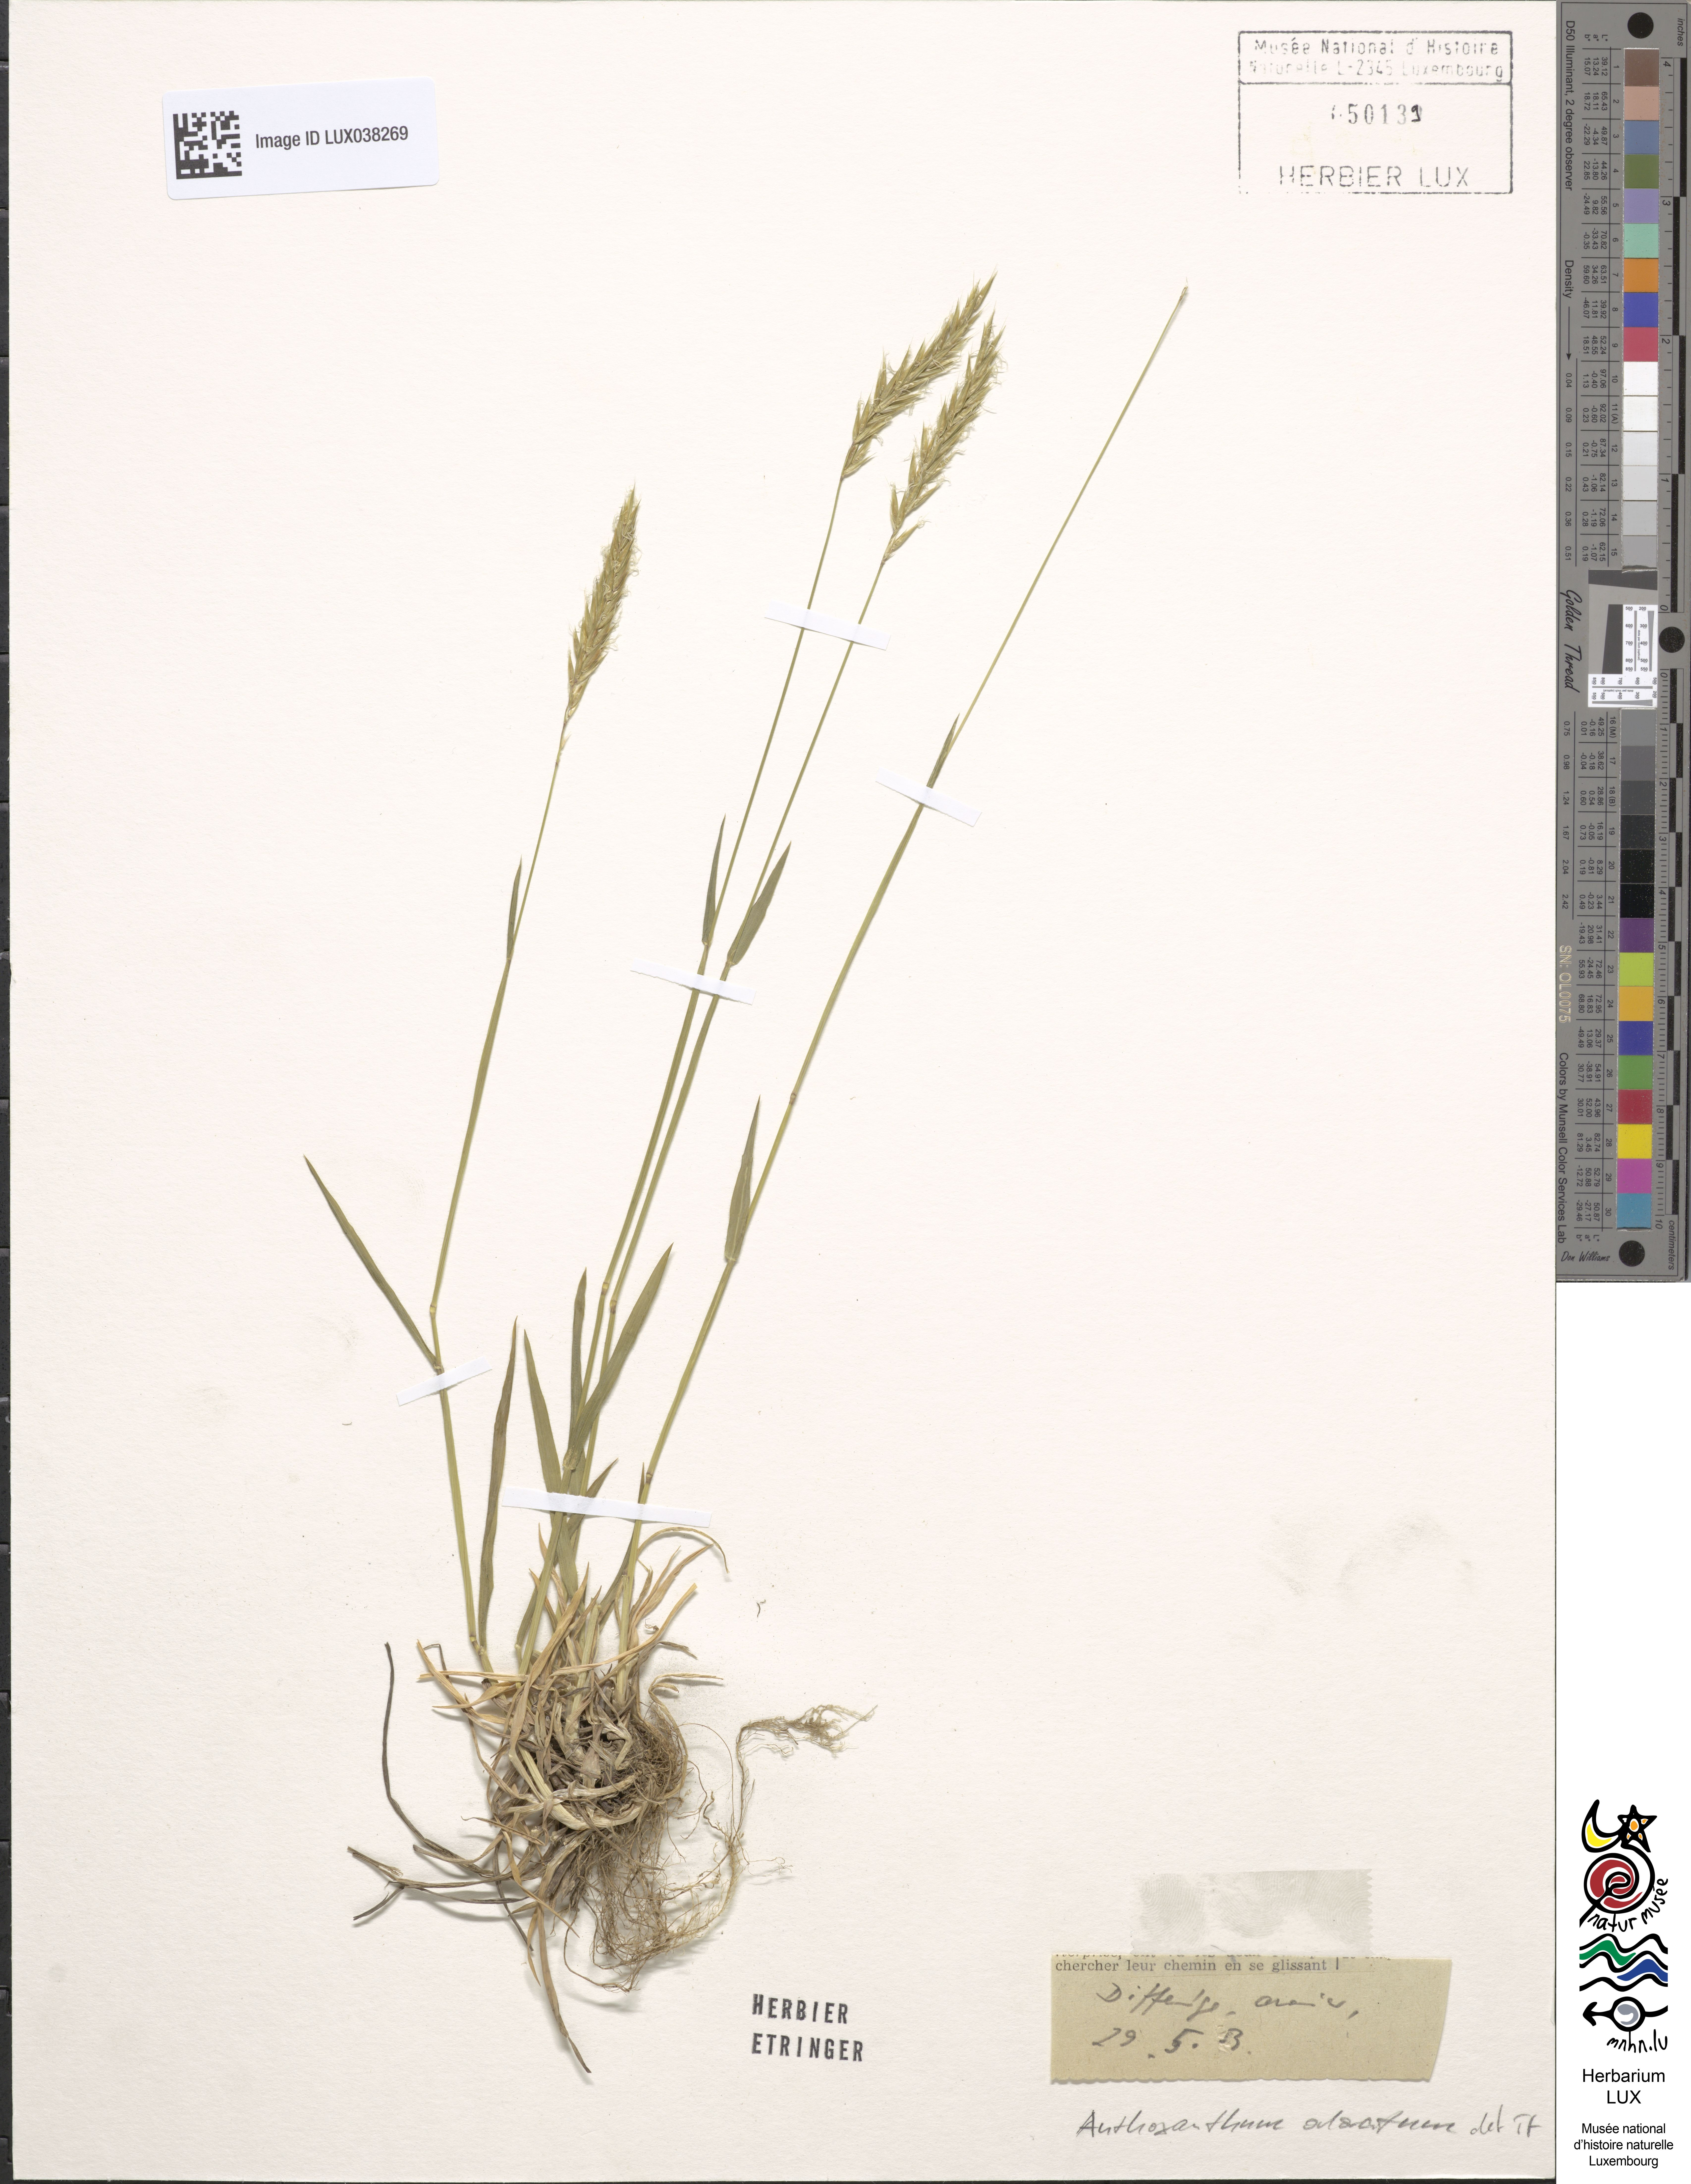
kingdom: Plantae
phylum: Tracheophyta
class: Liliopsida
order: Poales
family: Poaceae
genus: Anthoxanthum
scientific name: Anthoxanthum odoratum
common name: Sweet vernalgrass
